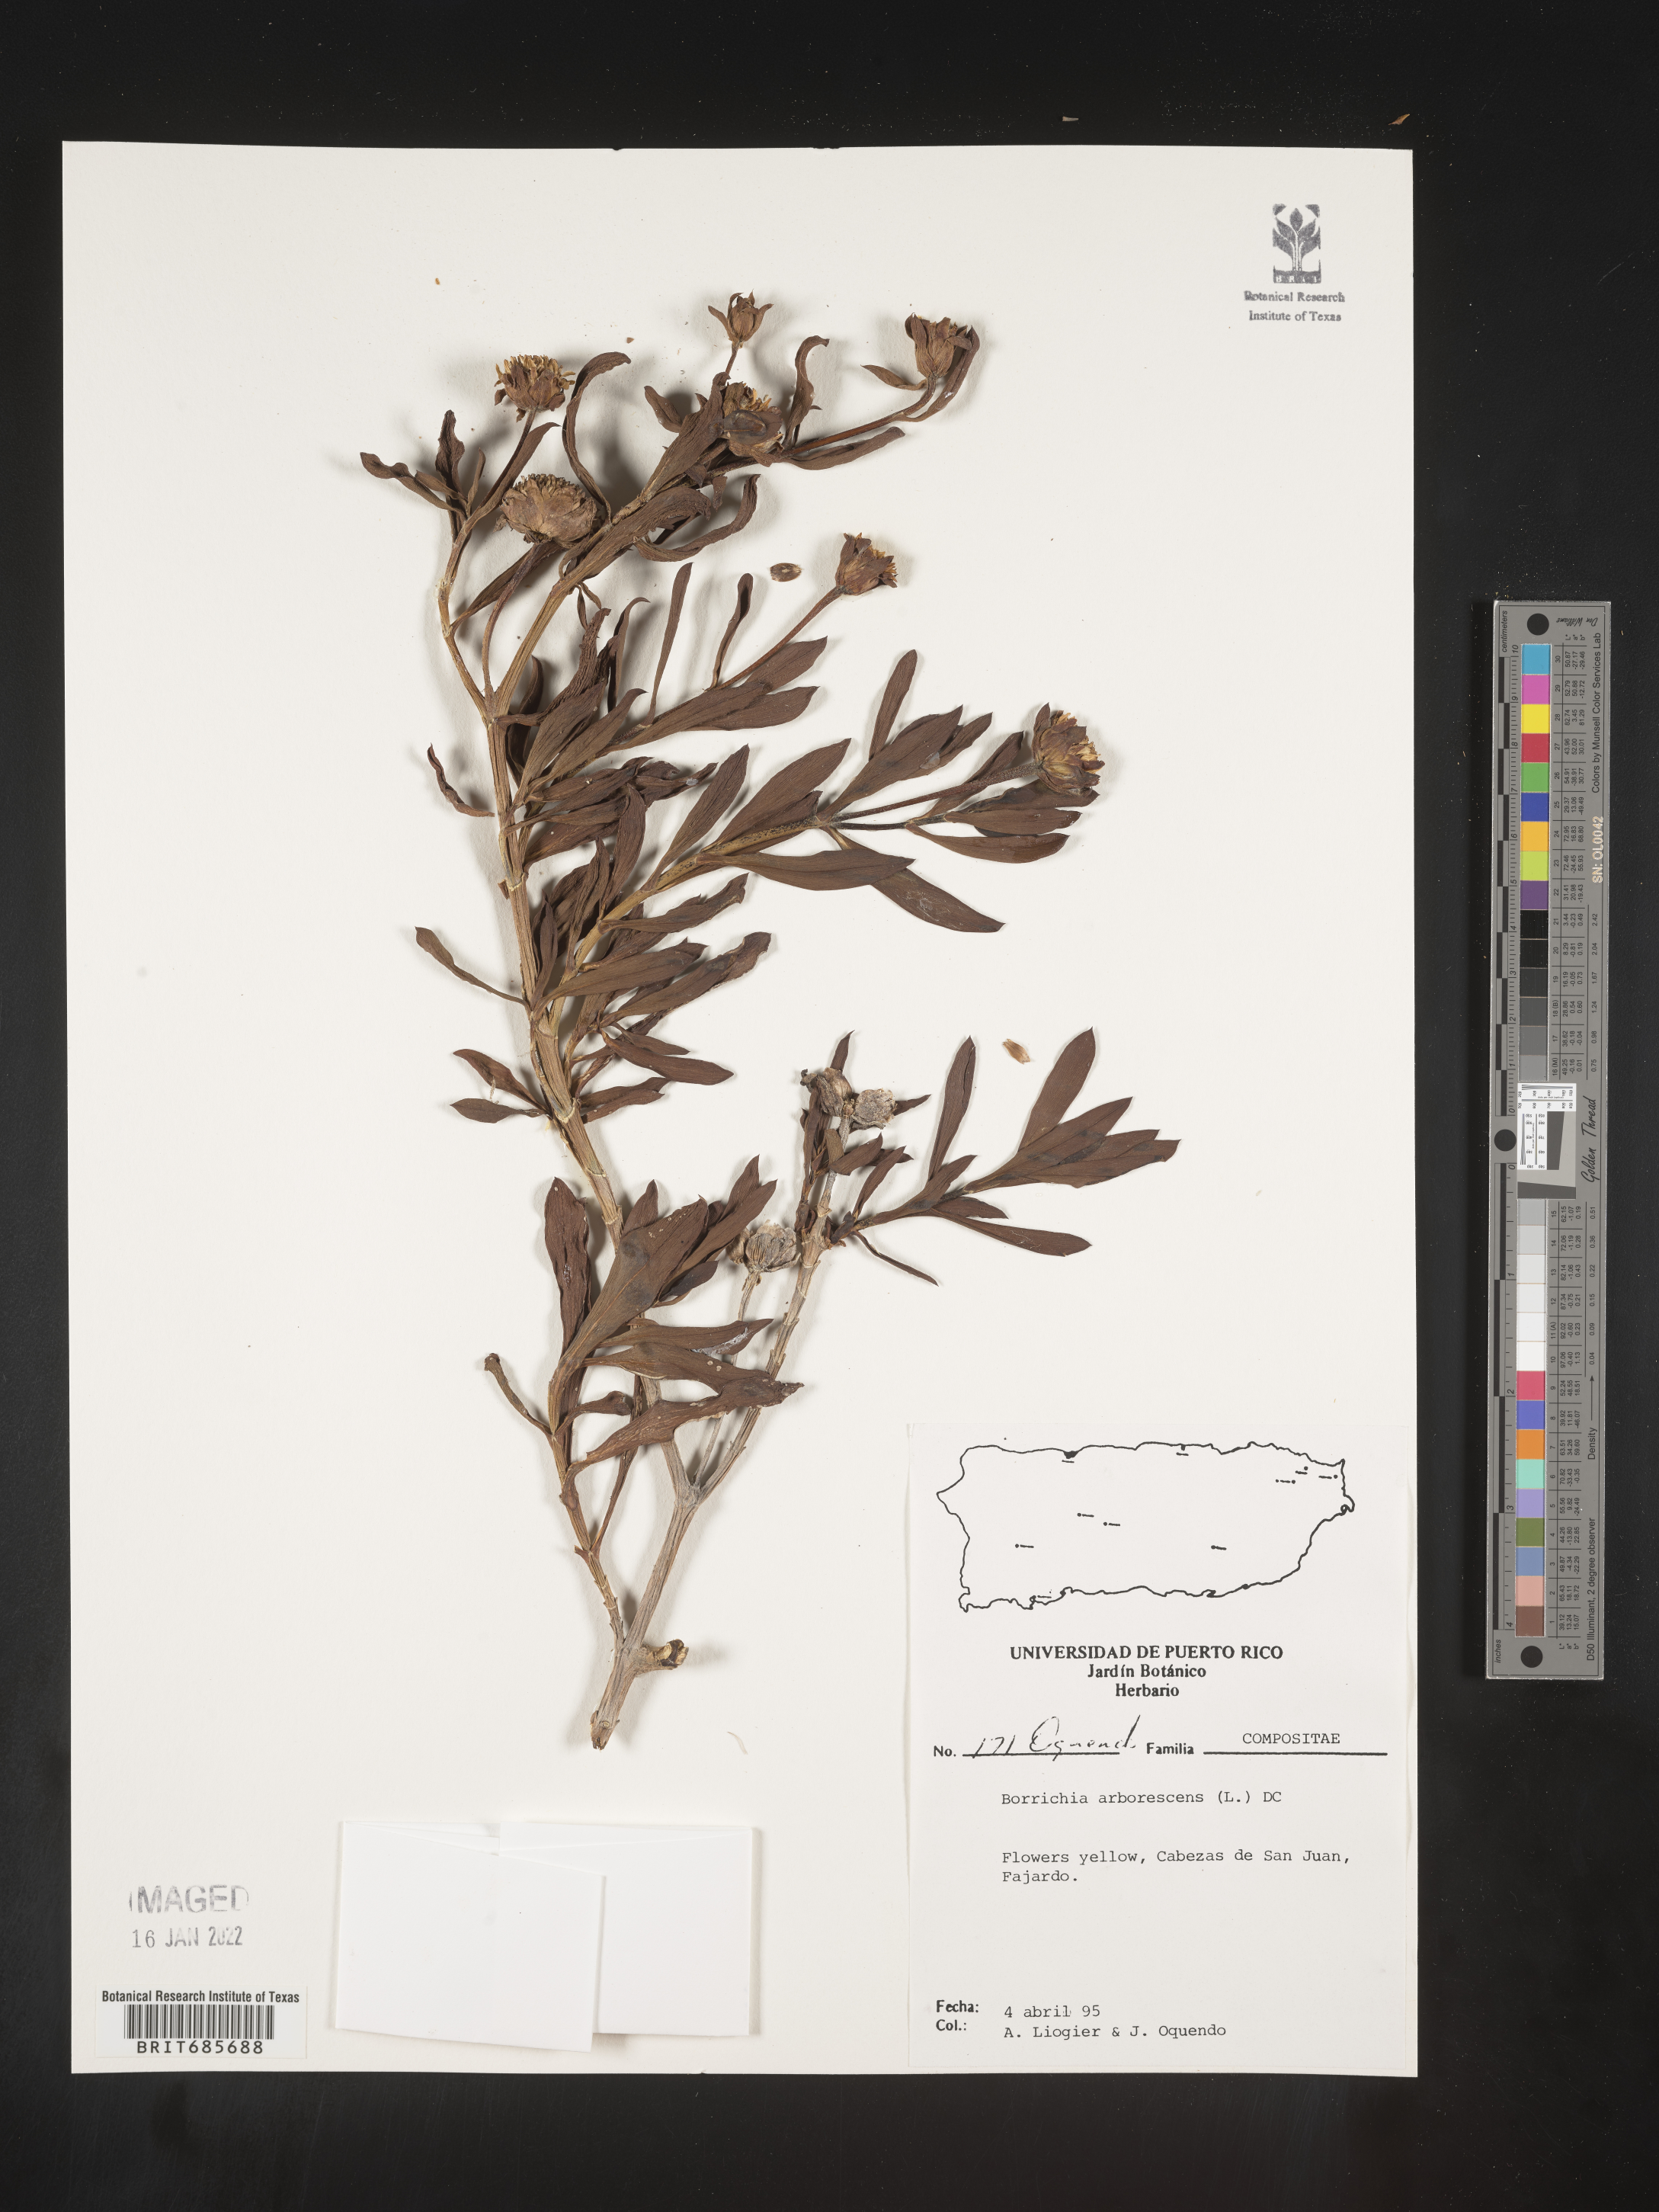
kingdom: Plantae
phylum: Tracheophyta
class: Magnoliopsida
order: Asterales
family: Asteraceae
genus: Borrichia
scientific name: Borrichia
